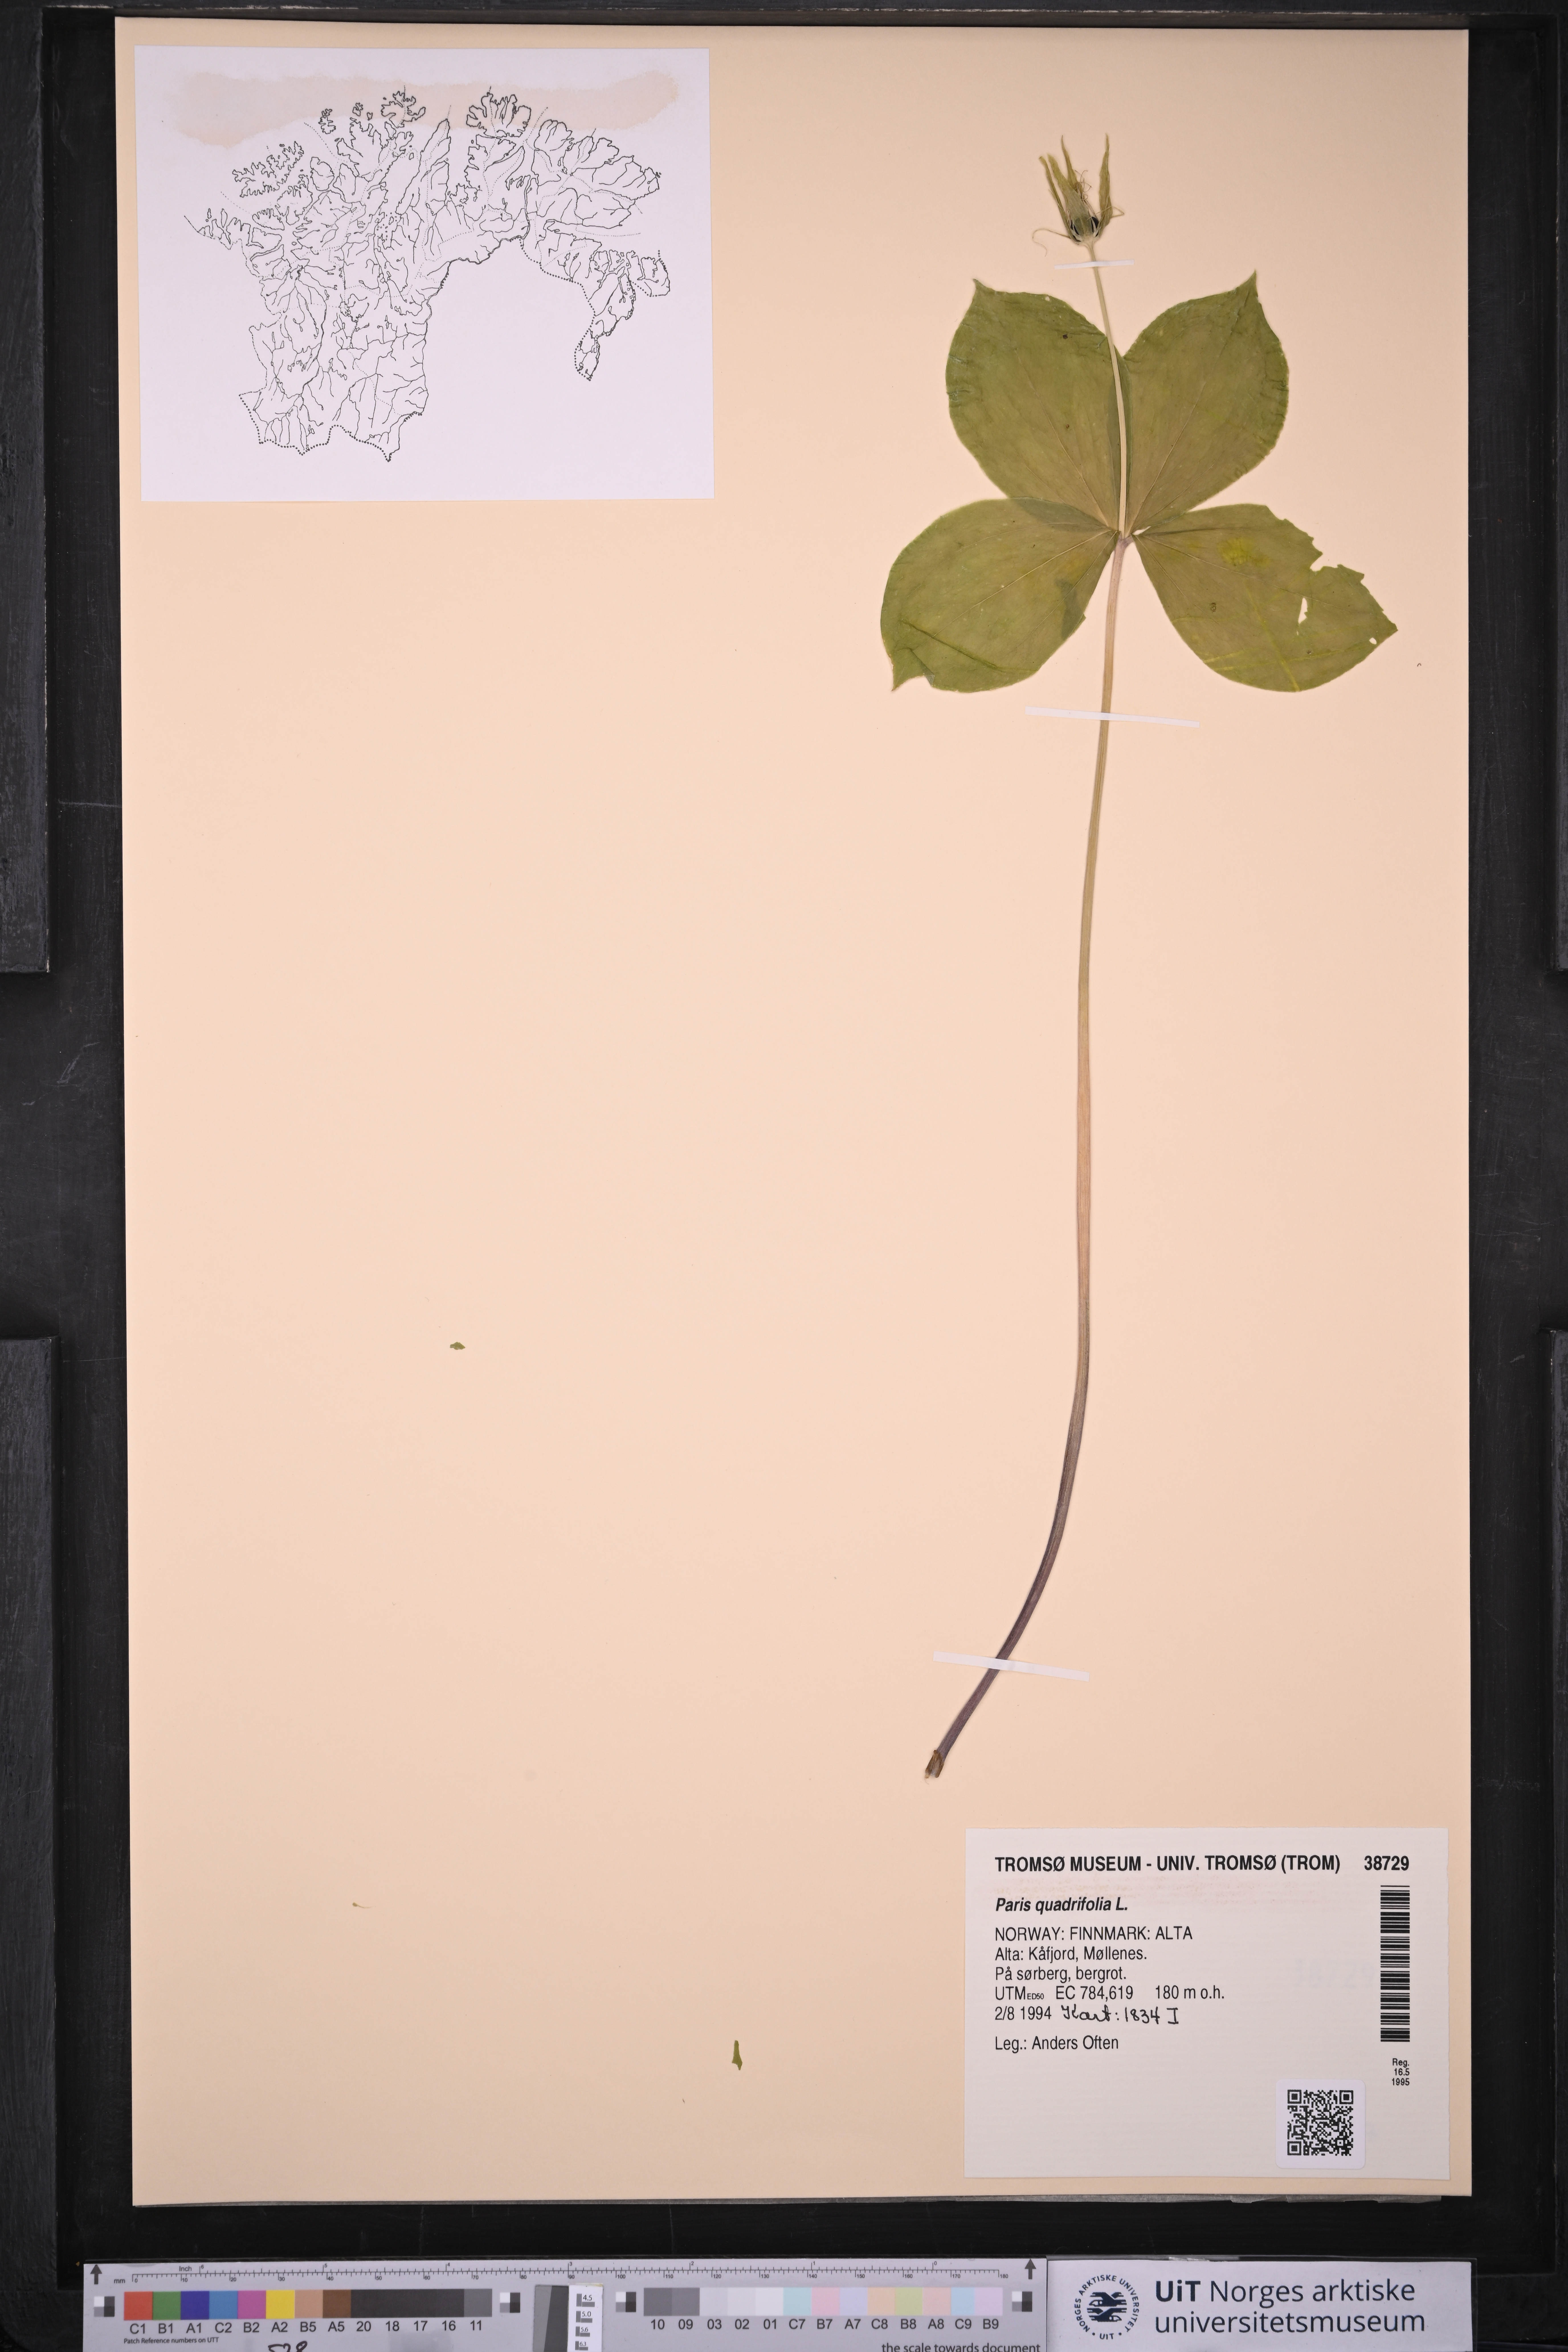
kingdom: Plantae
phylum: Tracheophyta
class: Liliopsida
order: Liliales
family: Melanthiaceae
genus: Paris
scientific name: Paris quadrifolia
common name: Herb-paris
